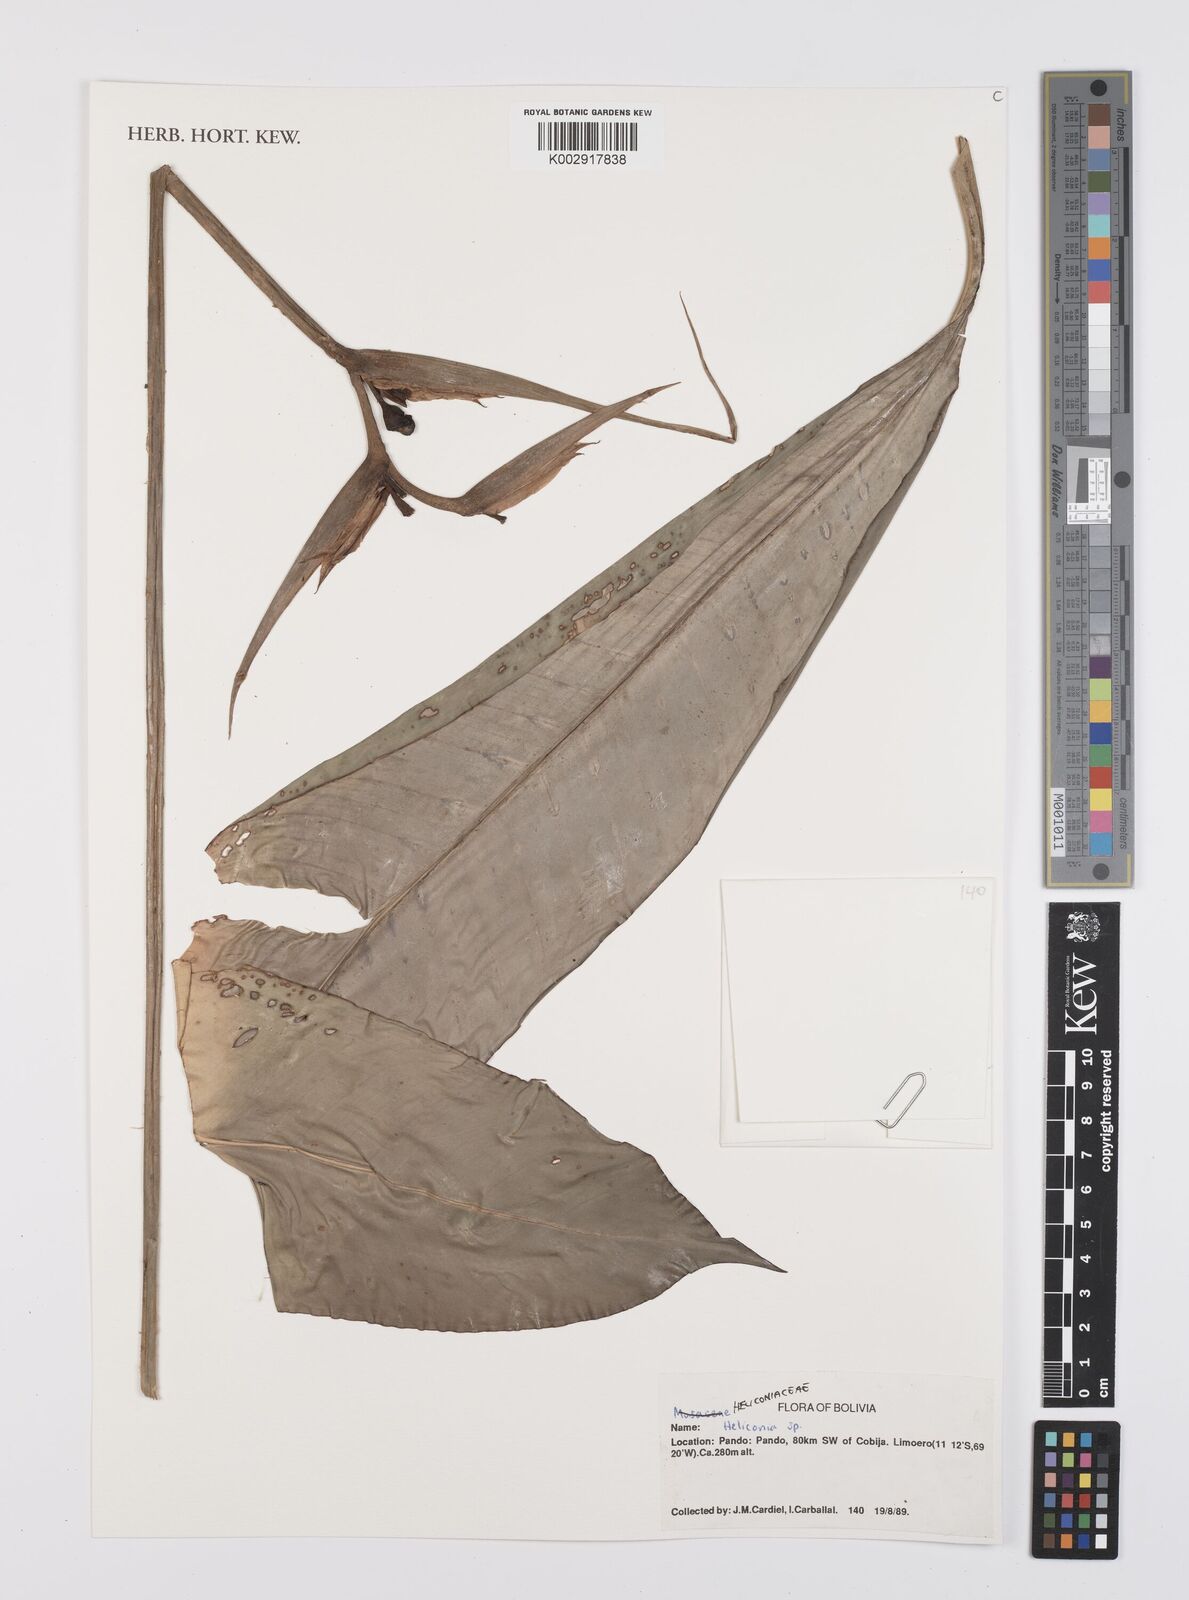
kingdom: Plantae
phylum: Tracheophyta
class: Liliopsida
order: Zingiberales
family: Heliconiaceae
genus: Heliconia
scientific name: Heliconia
